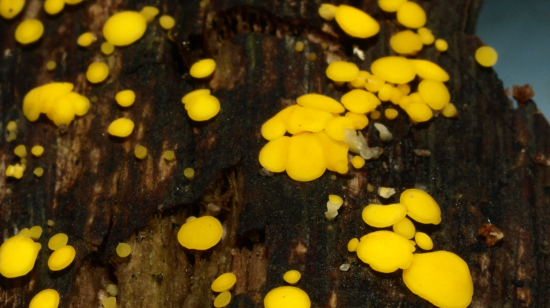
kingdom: Fungi
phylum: Ascomycota
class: Leotiomycetes
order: Helotiales
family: Pezizellaceae
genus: Calycina
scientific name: Calycina citrina
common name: almindelig gulskive
